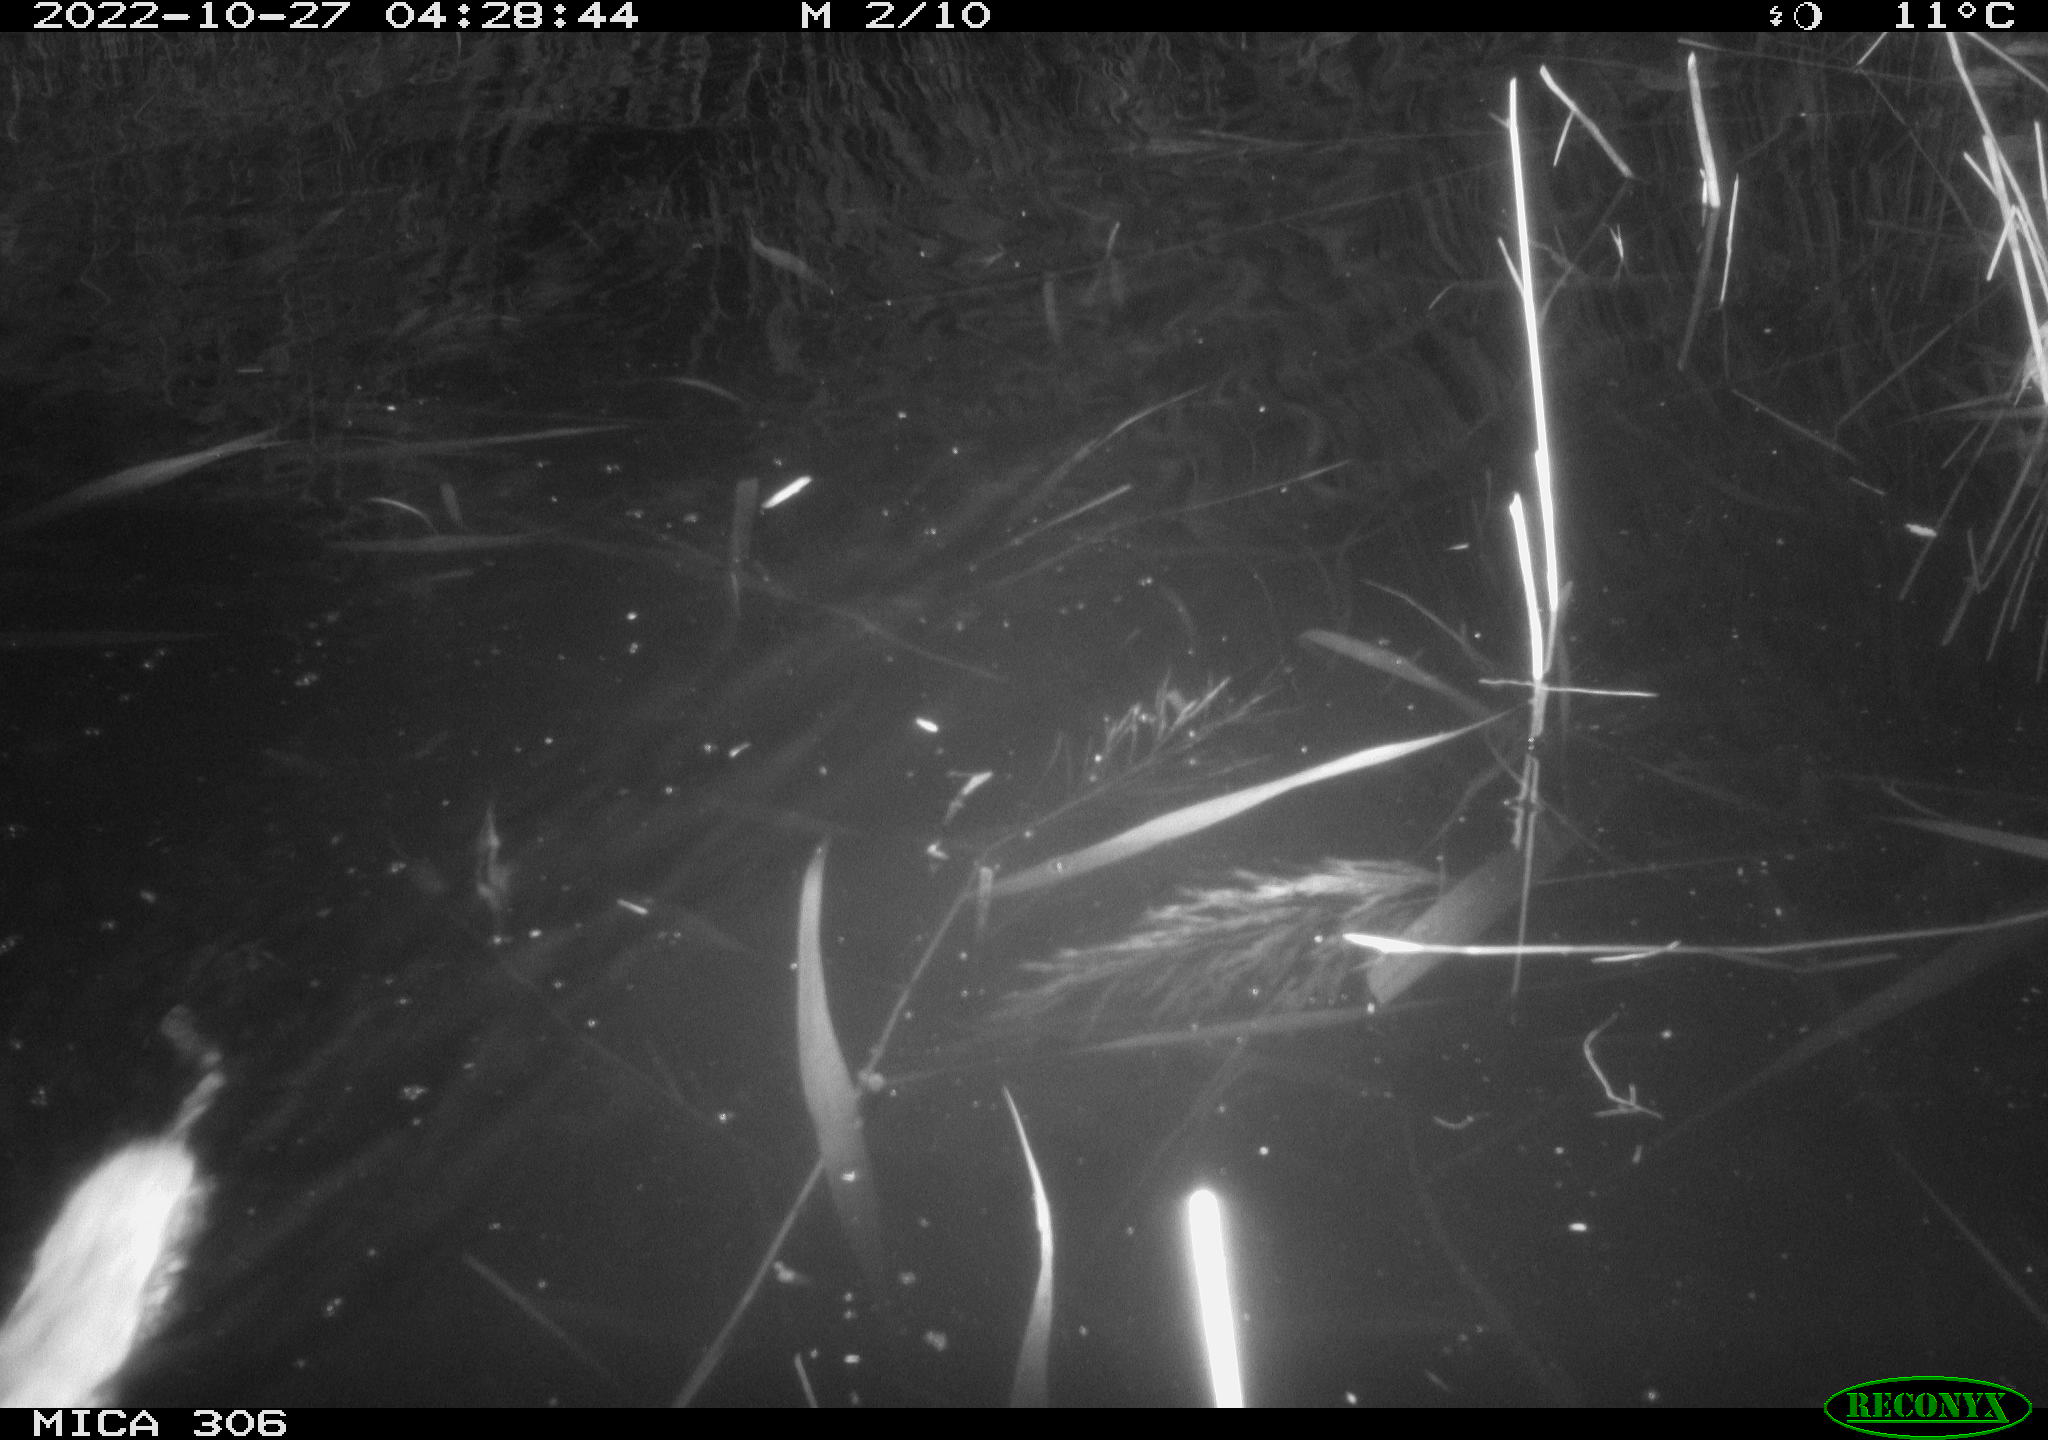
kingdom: Animalia
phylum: Chordata
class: Mammalia
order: Rodentia
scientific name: Rodentia
